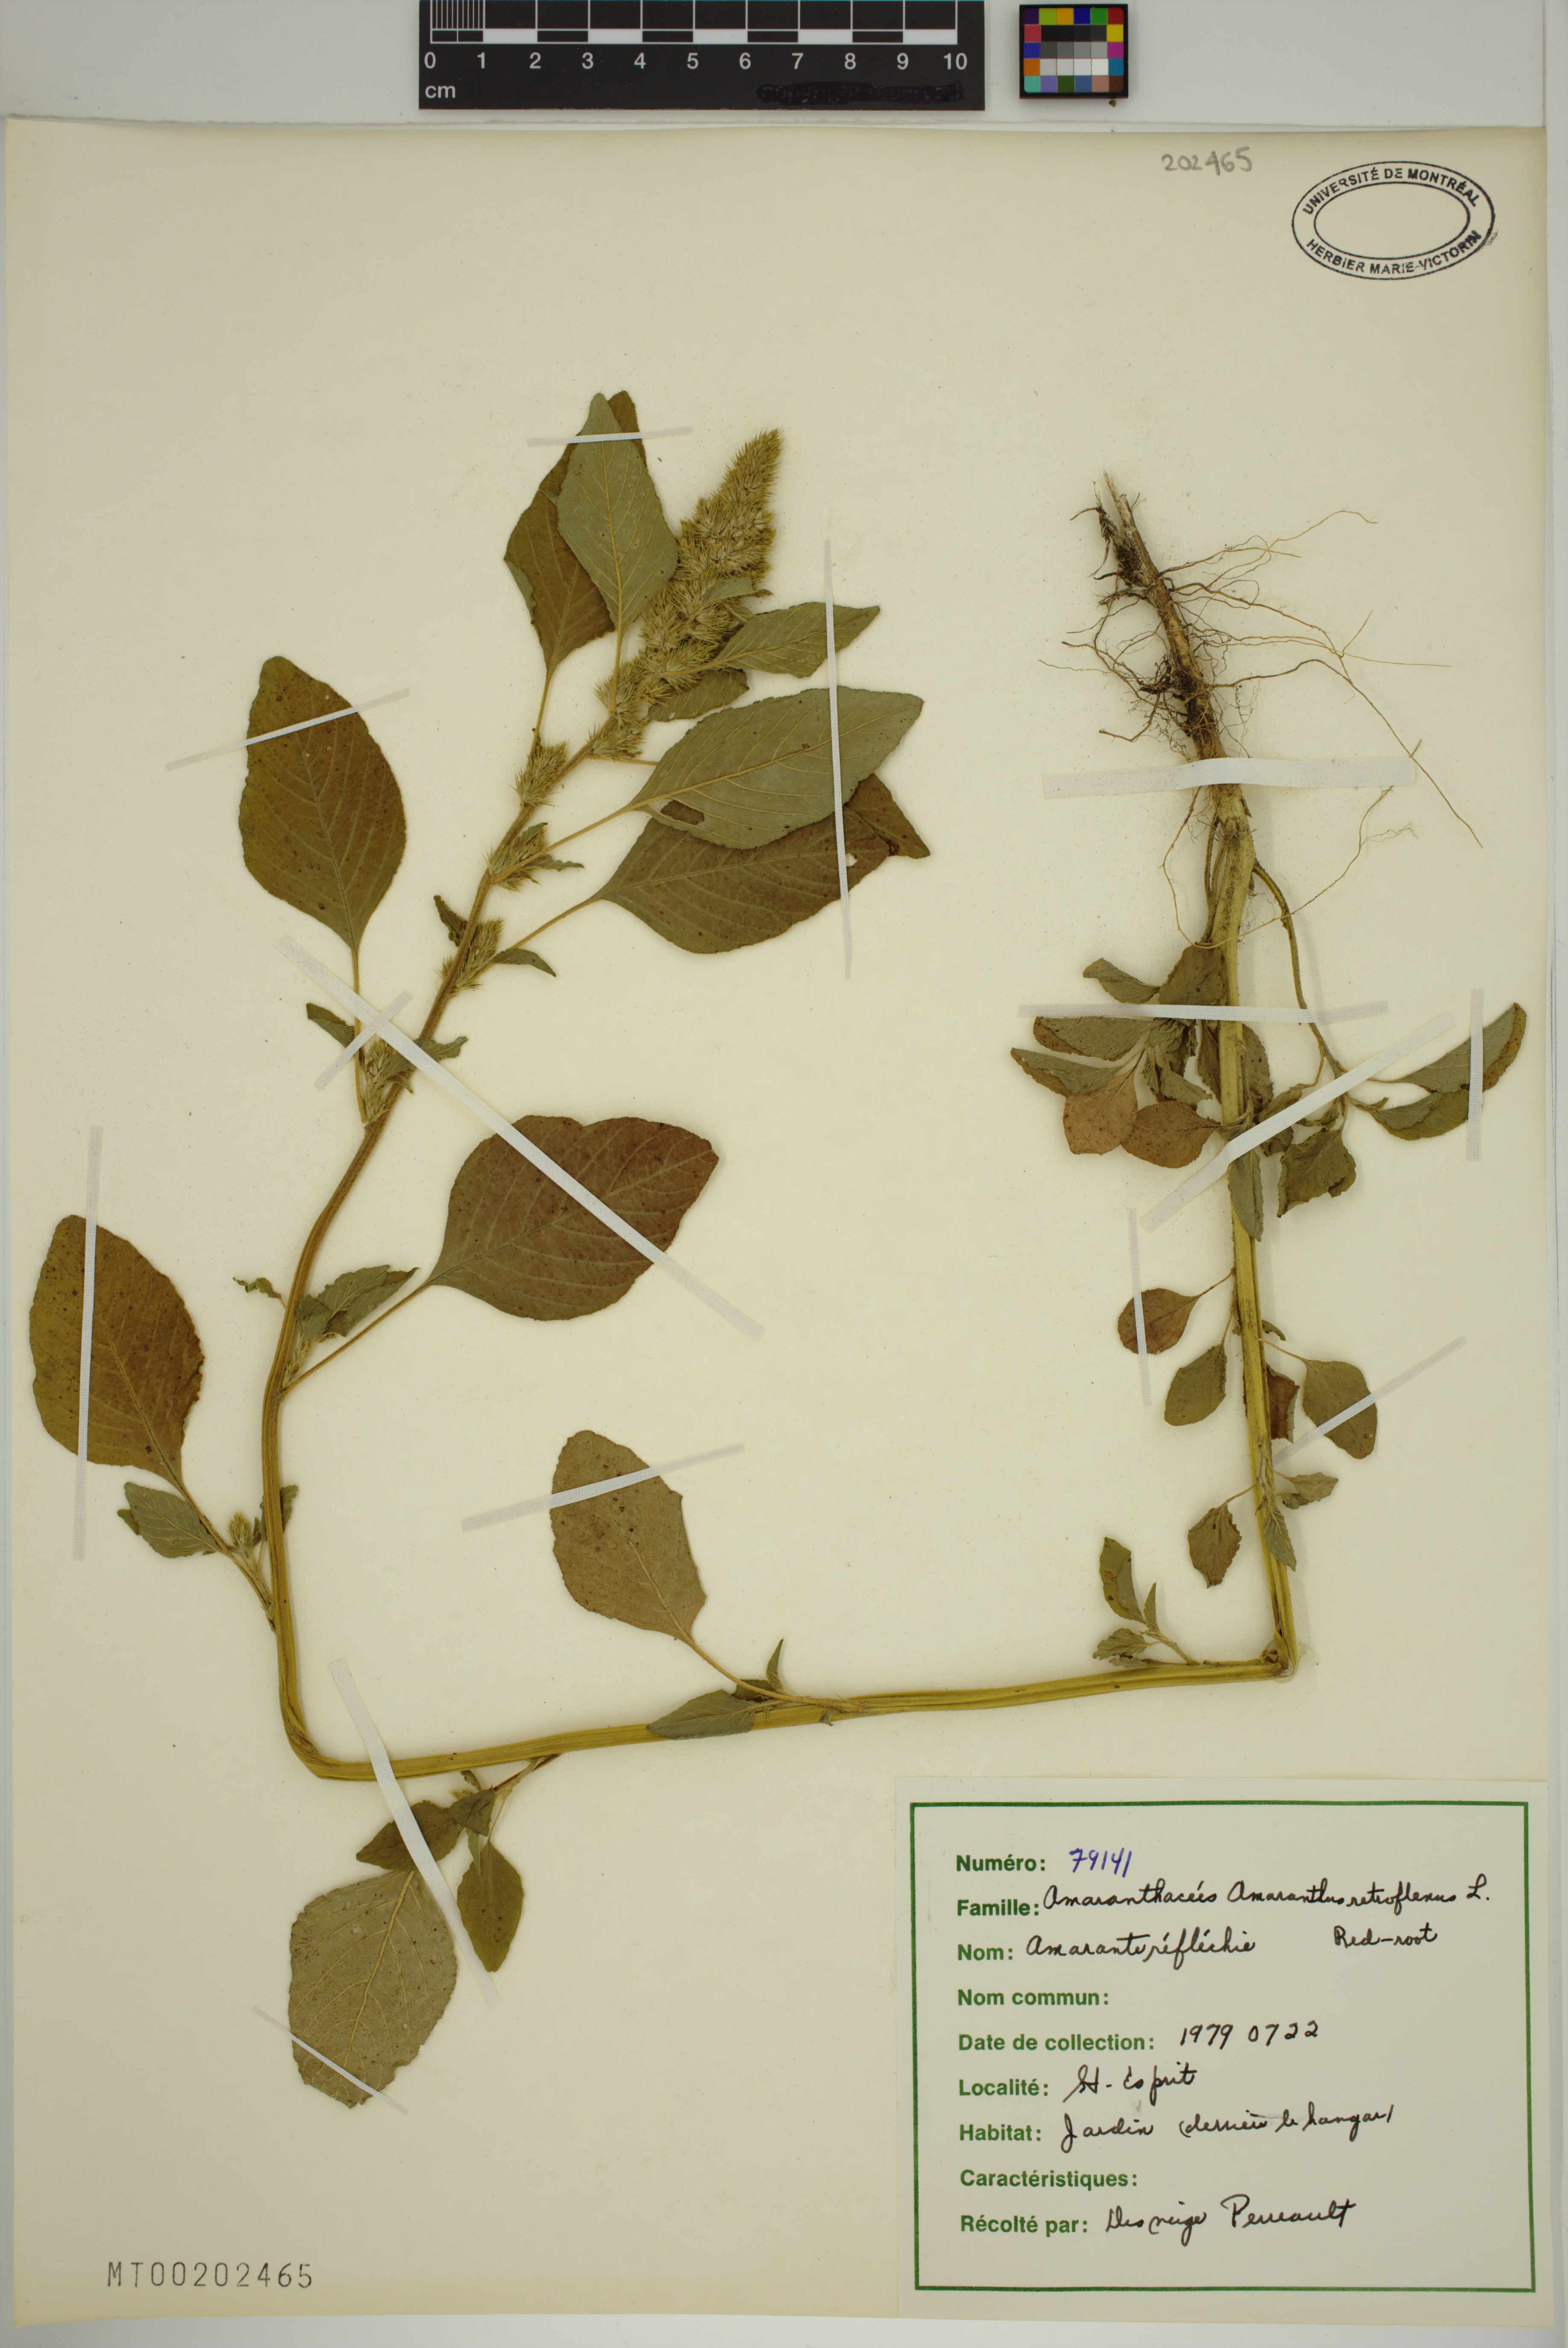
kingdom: Plantae
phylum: Tracheophyta
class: Magnoliopsida
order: Caryophyllales
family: Amaranthaceae
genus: Amaranthus
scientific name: Amaranthus retroflexus
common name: Redroot amaranth
